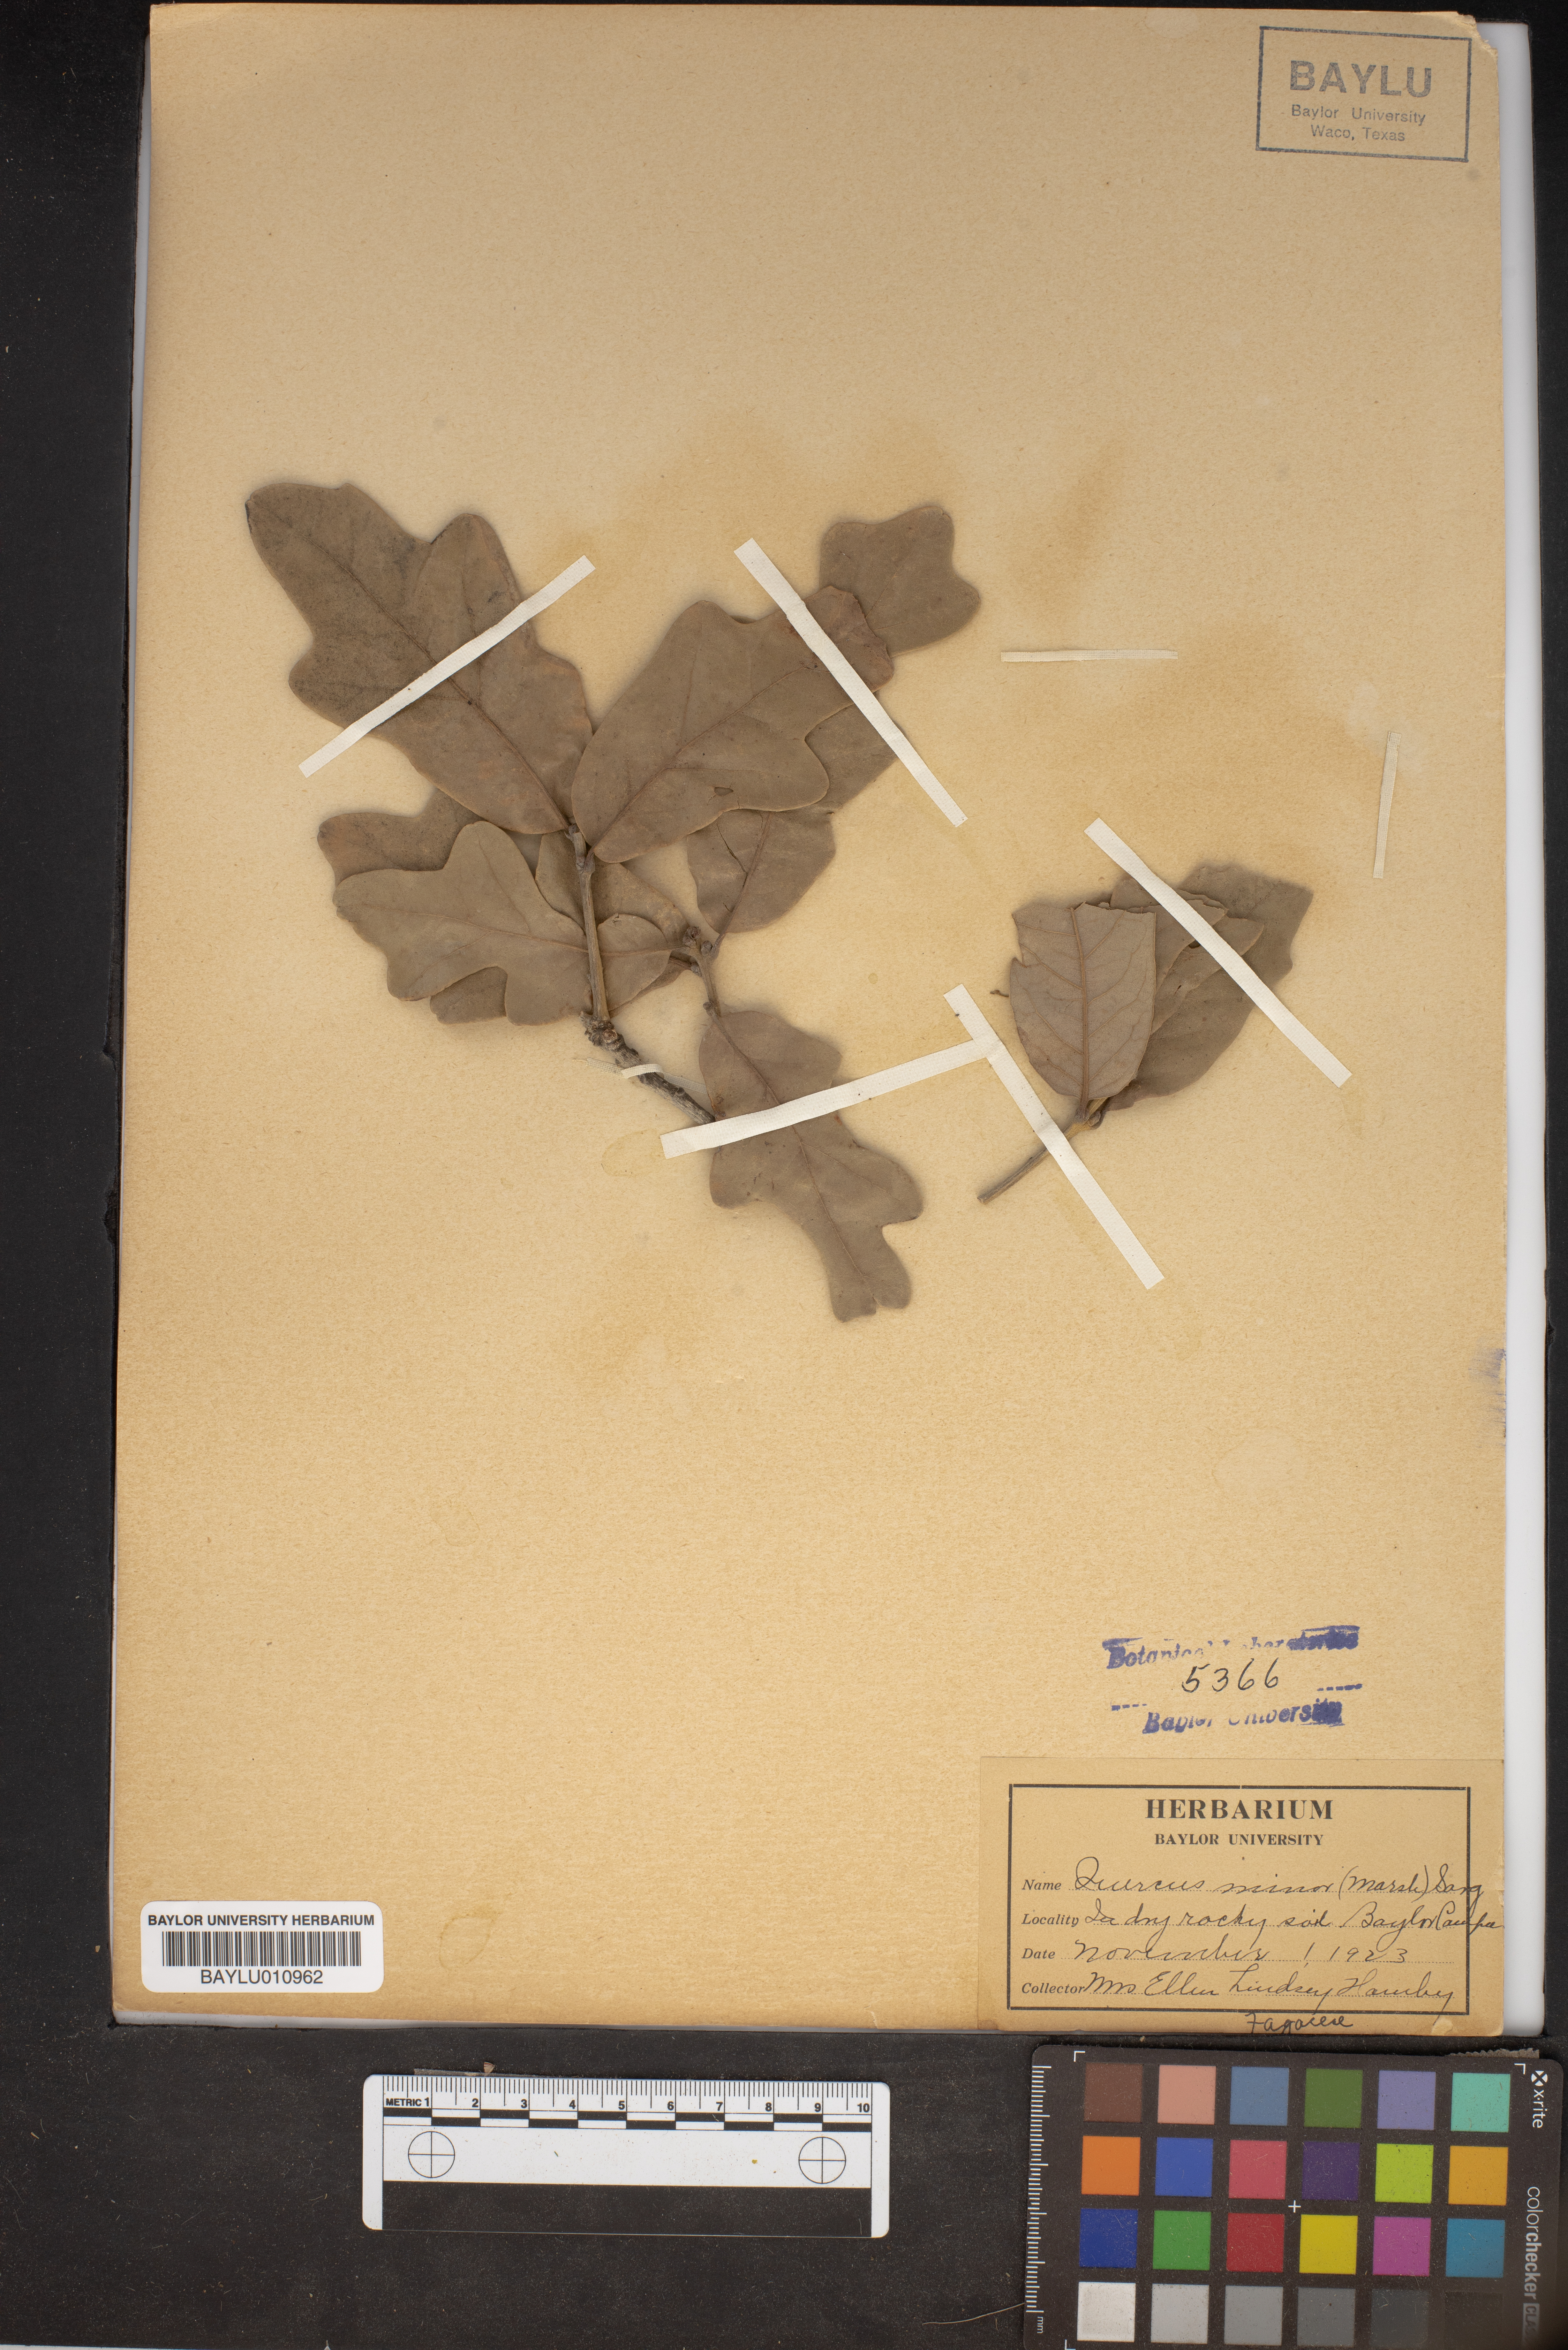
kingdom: Plantae
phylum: Tracheophyta
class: Magnoliopsida
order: Fagales
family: Fagaceae
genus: Quercus
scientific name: Quercus stellata
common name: Post oak
